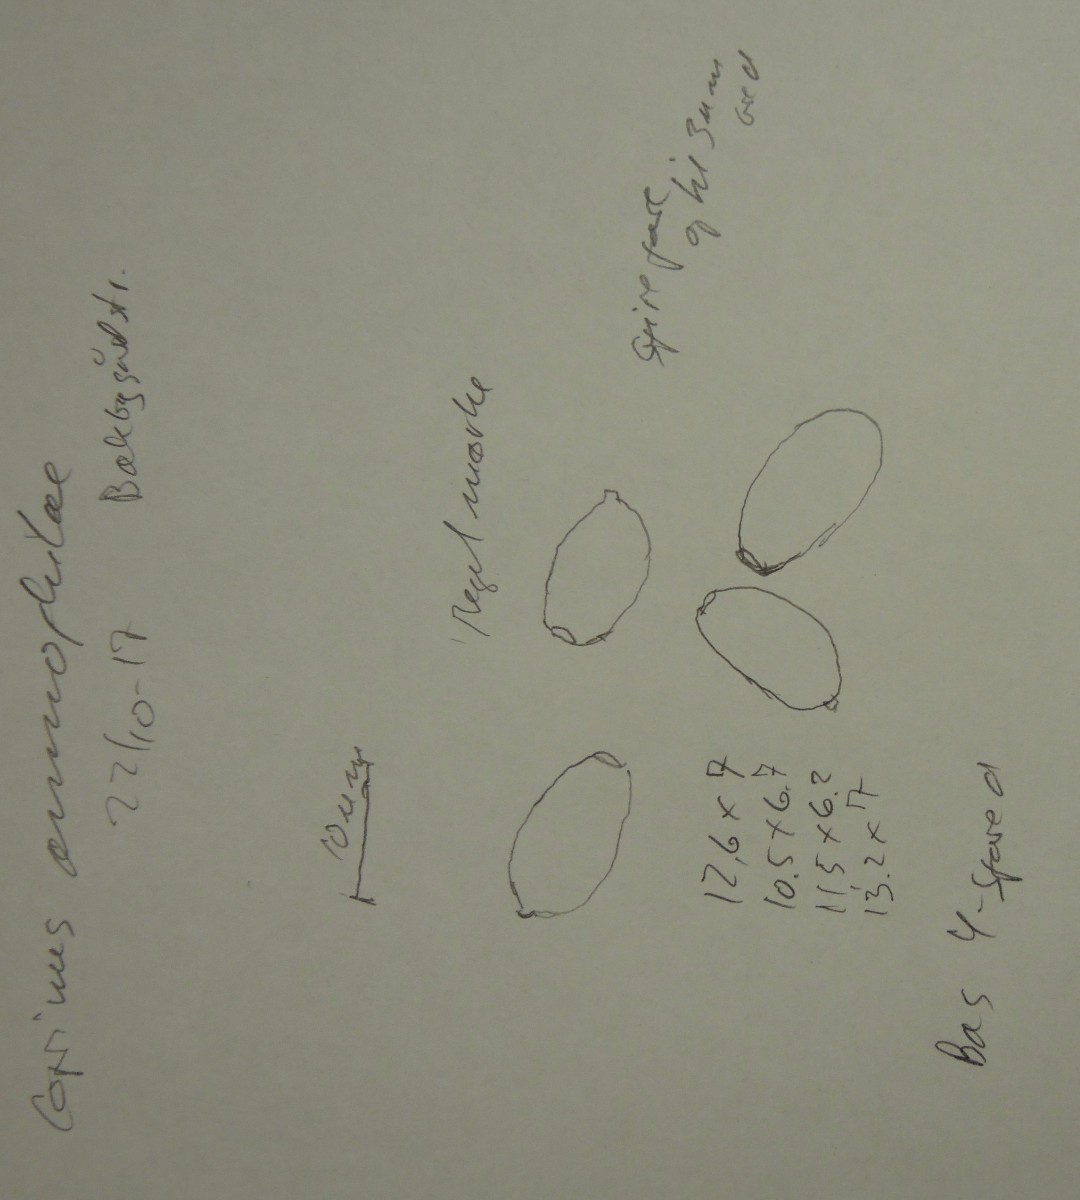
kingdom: Fungi
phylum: Basidiomycota
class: Agaricomycetes
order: Agaricales
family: Psathyrellaceae
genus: Coprinopsis
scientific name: Coprinopsis ammophilae
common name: hjelme-blækhat
